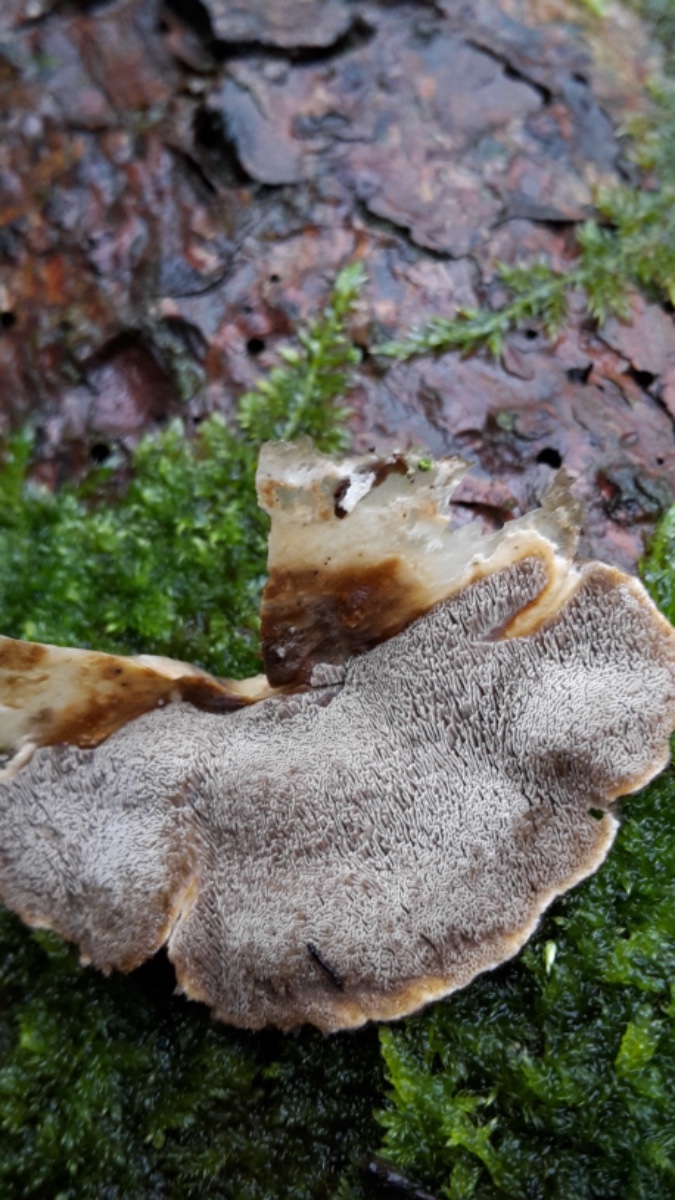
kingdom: Fungi
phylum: Basidiomycota
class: Agaricomycetes
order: Polyporales
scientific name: Polyporales
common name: poresvampordenen
